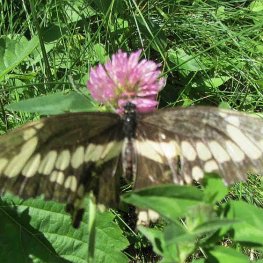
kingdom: Animalia
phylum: Arthropoda
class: Insecta
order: Lepidoptera
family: Papilionidae
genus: Papilio
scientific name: Papilio cresphontes
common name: Eastern Giant Swallowtail
